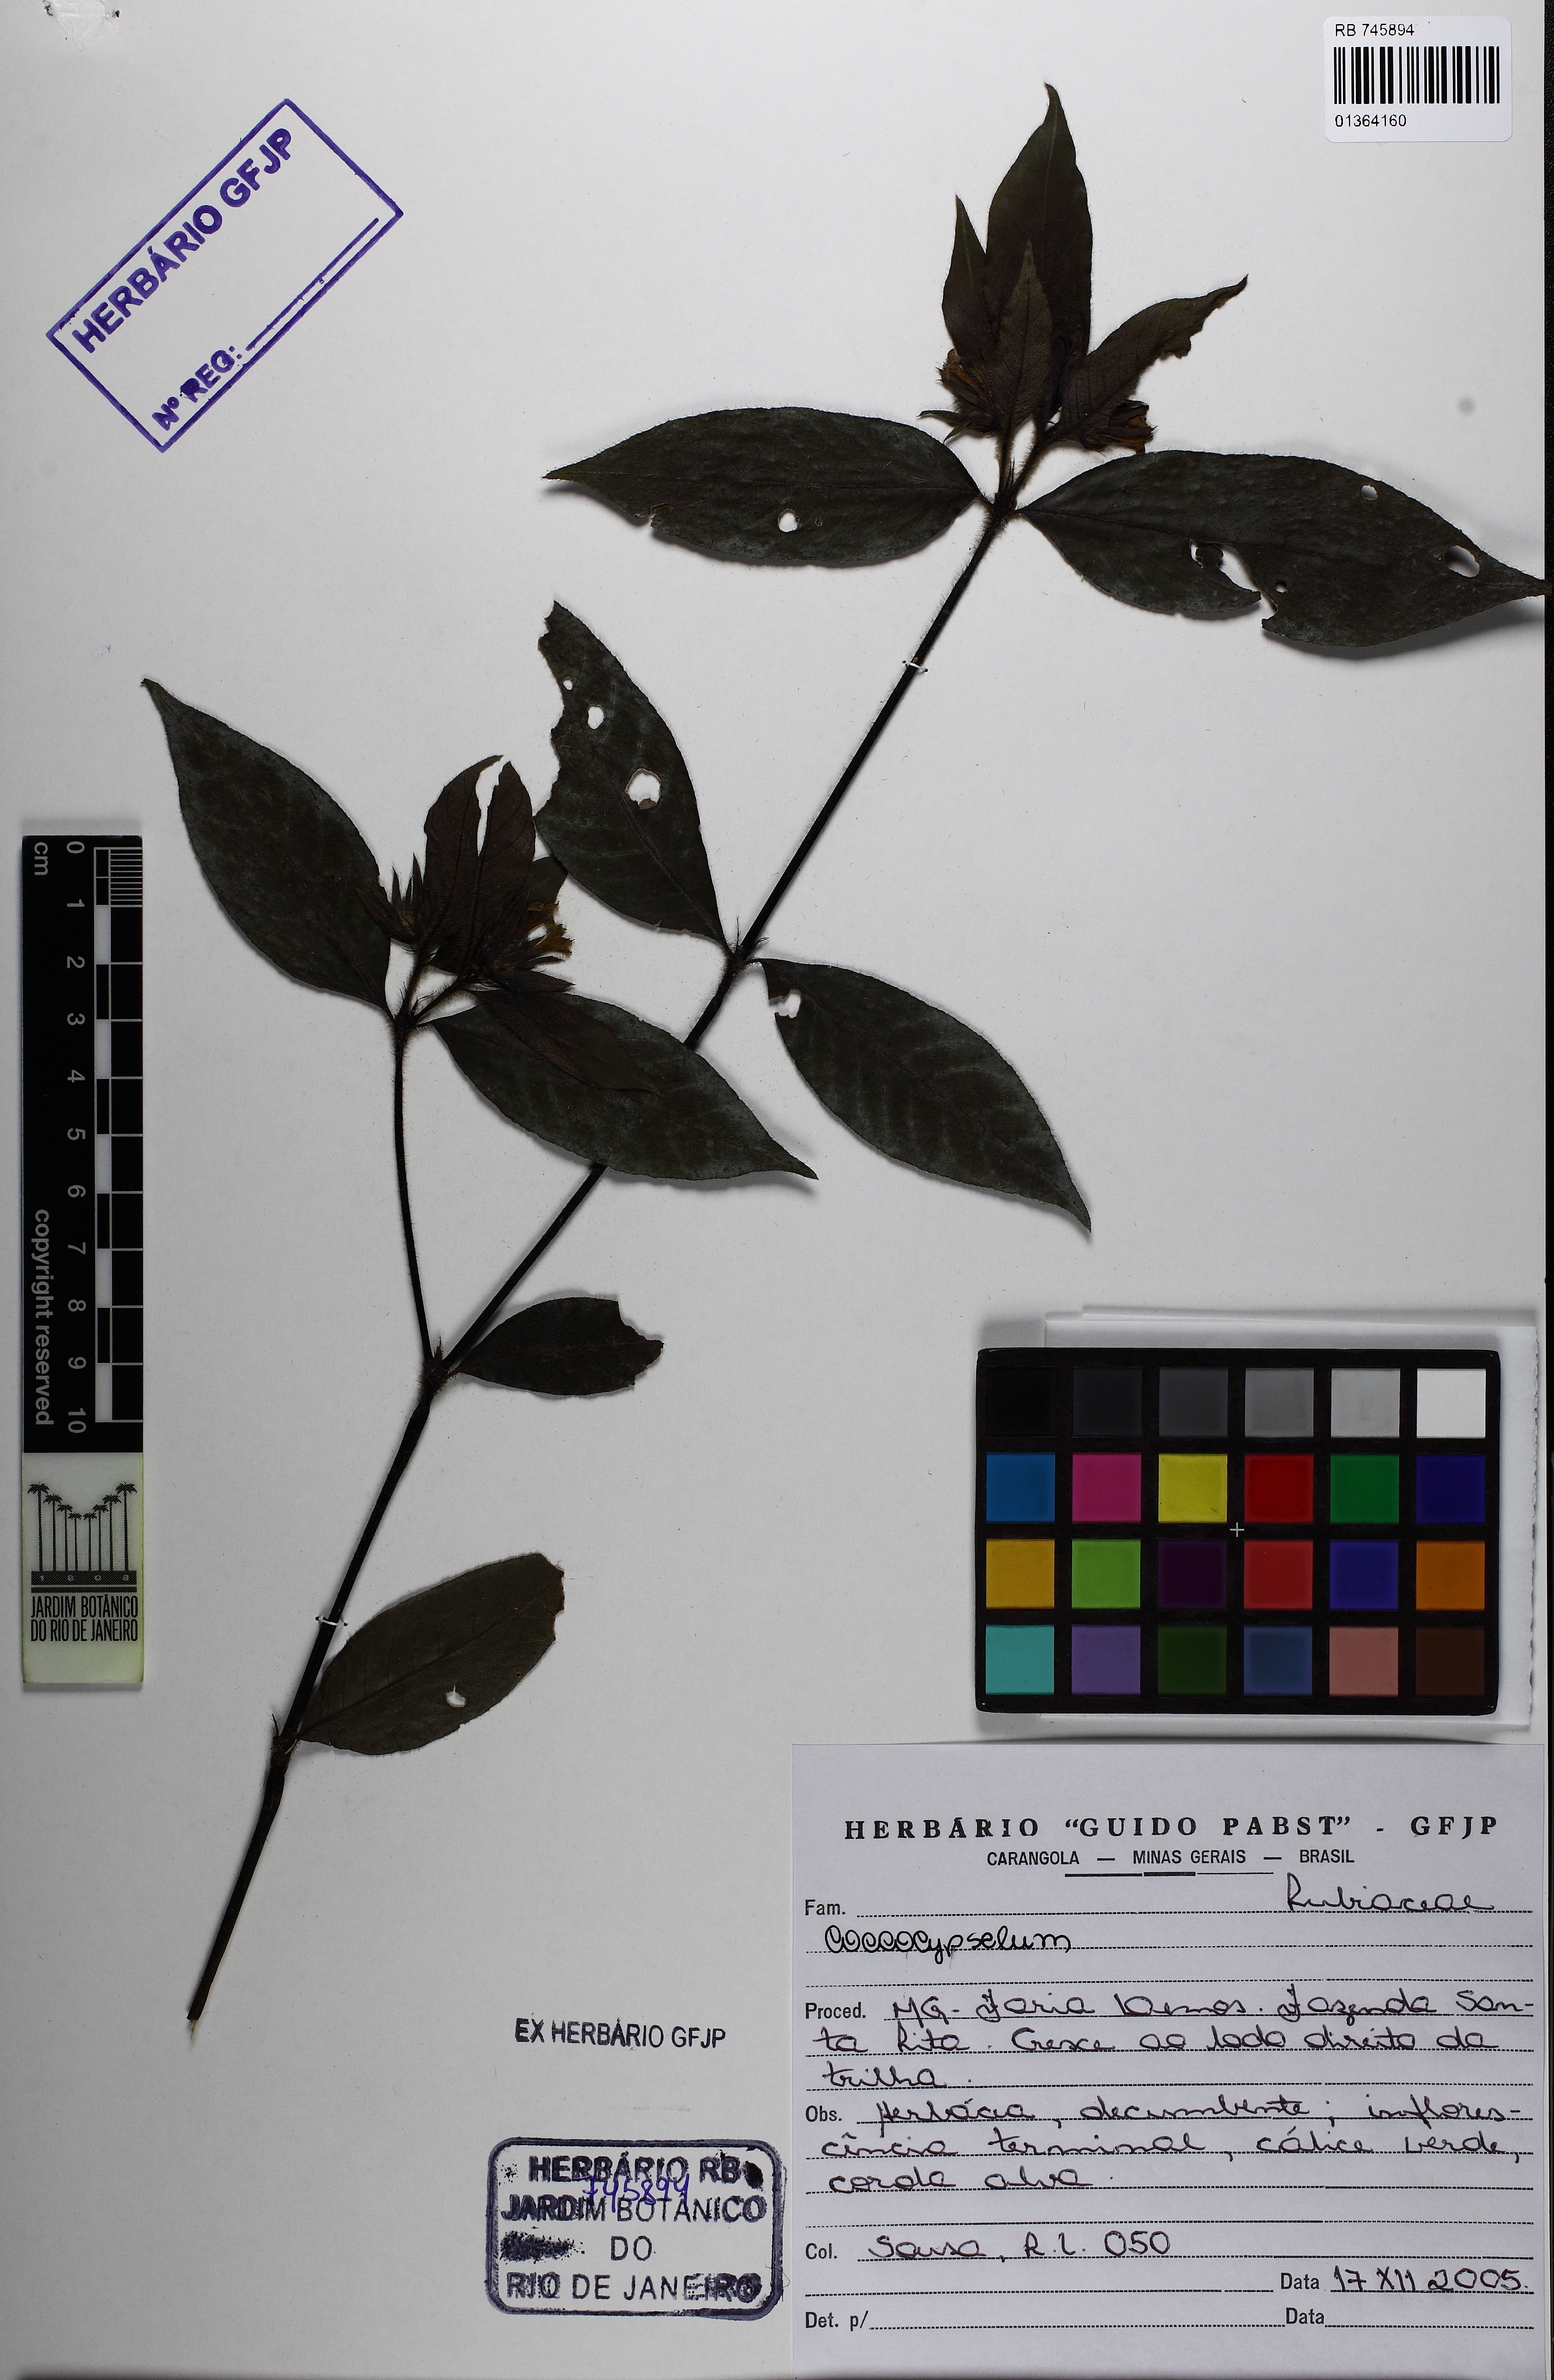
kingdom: Plantae
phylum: Tracheophyta
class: Magnoliopsida
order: Gentianales
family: Rubiaceae
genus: Coccocypselum
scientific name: Coccocypselum
